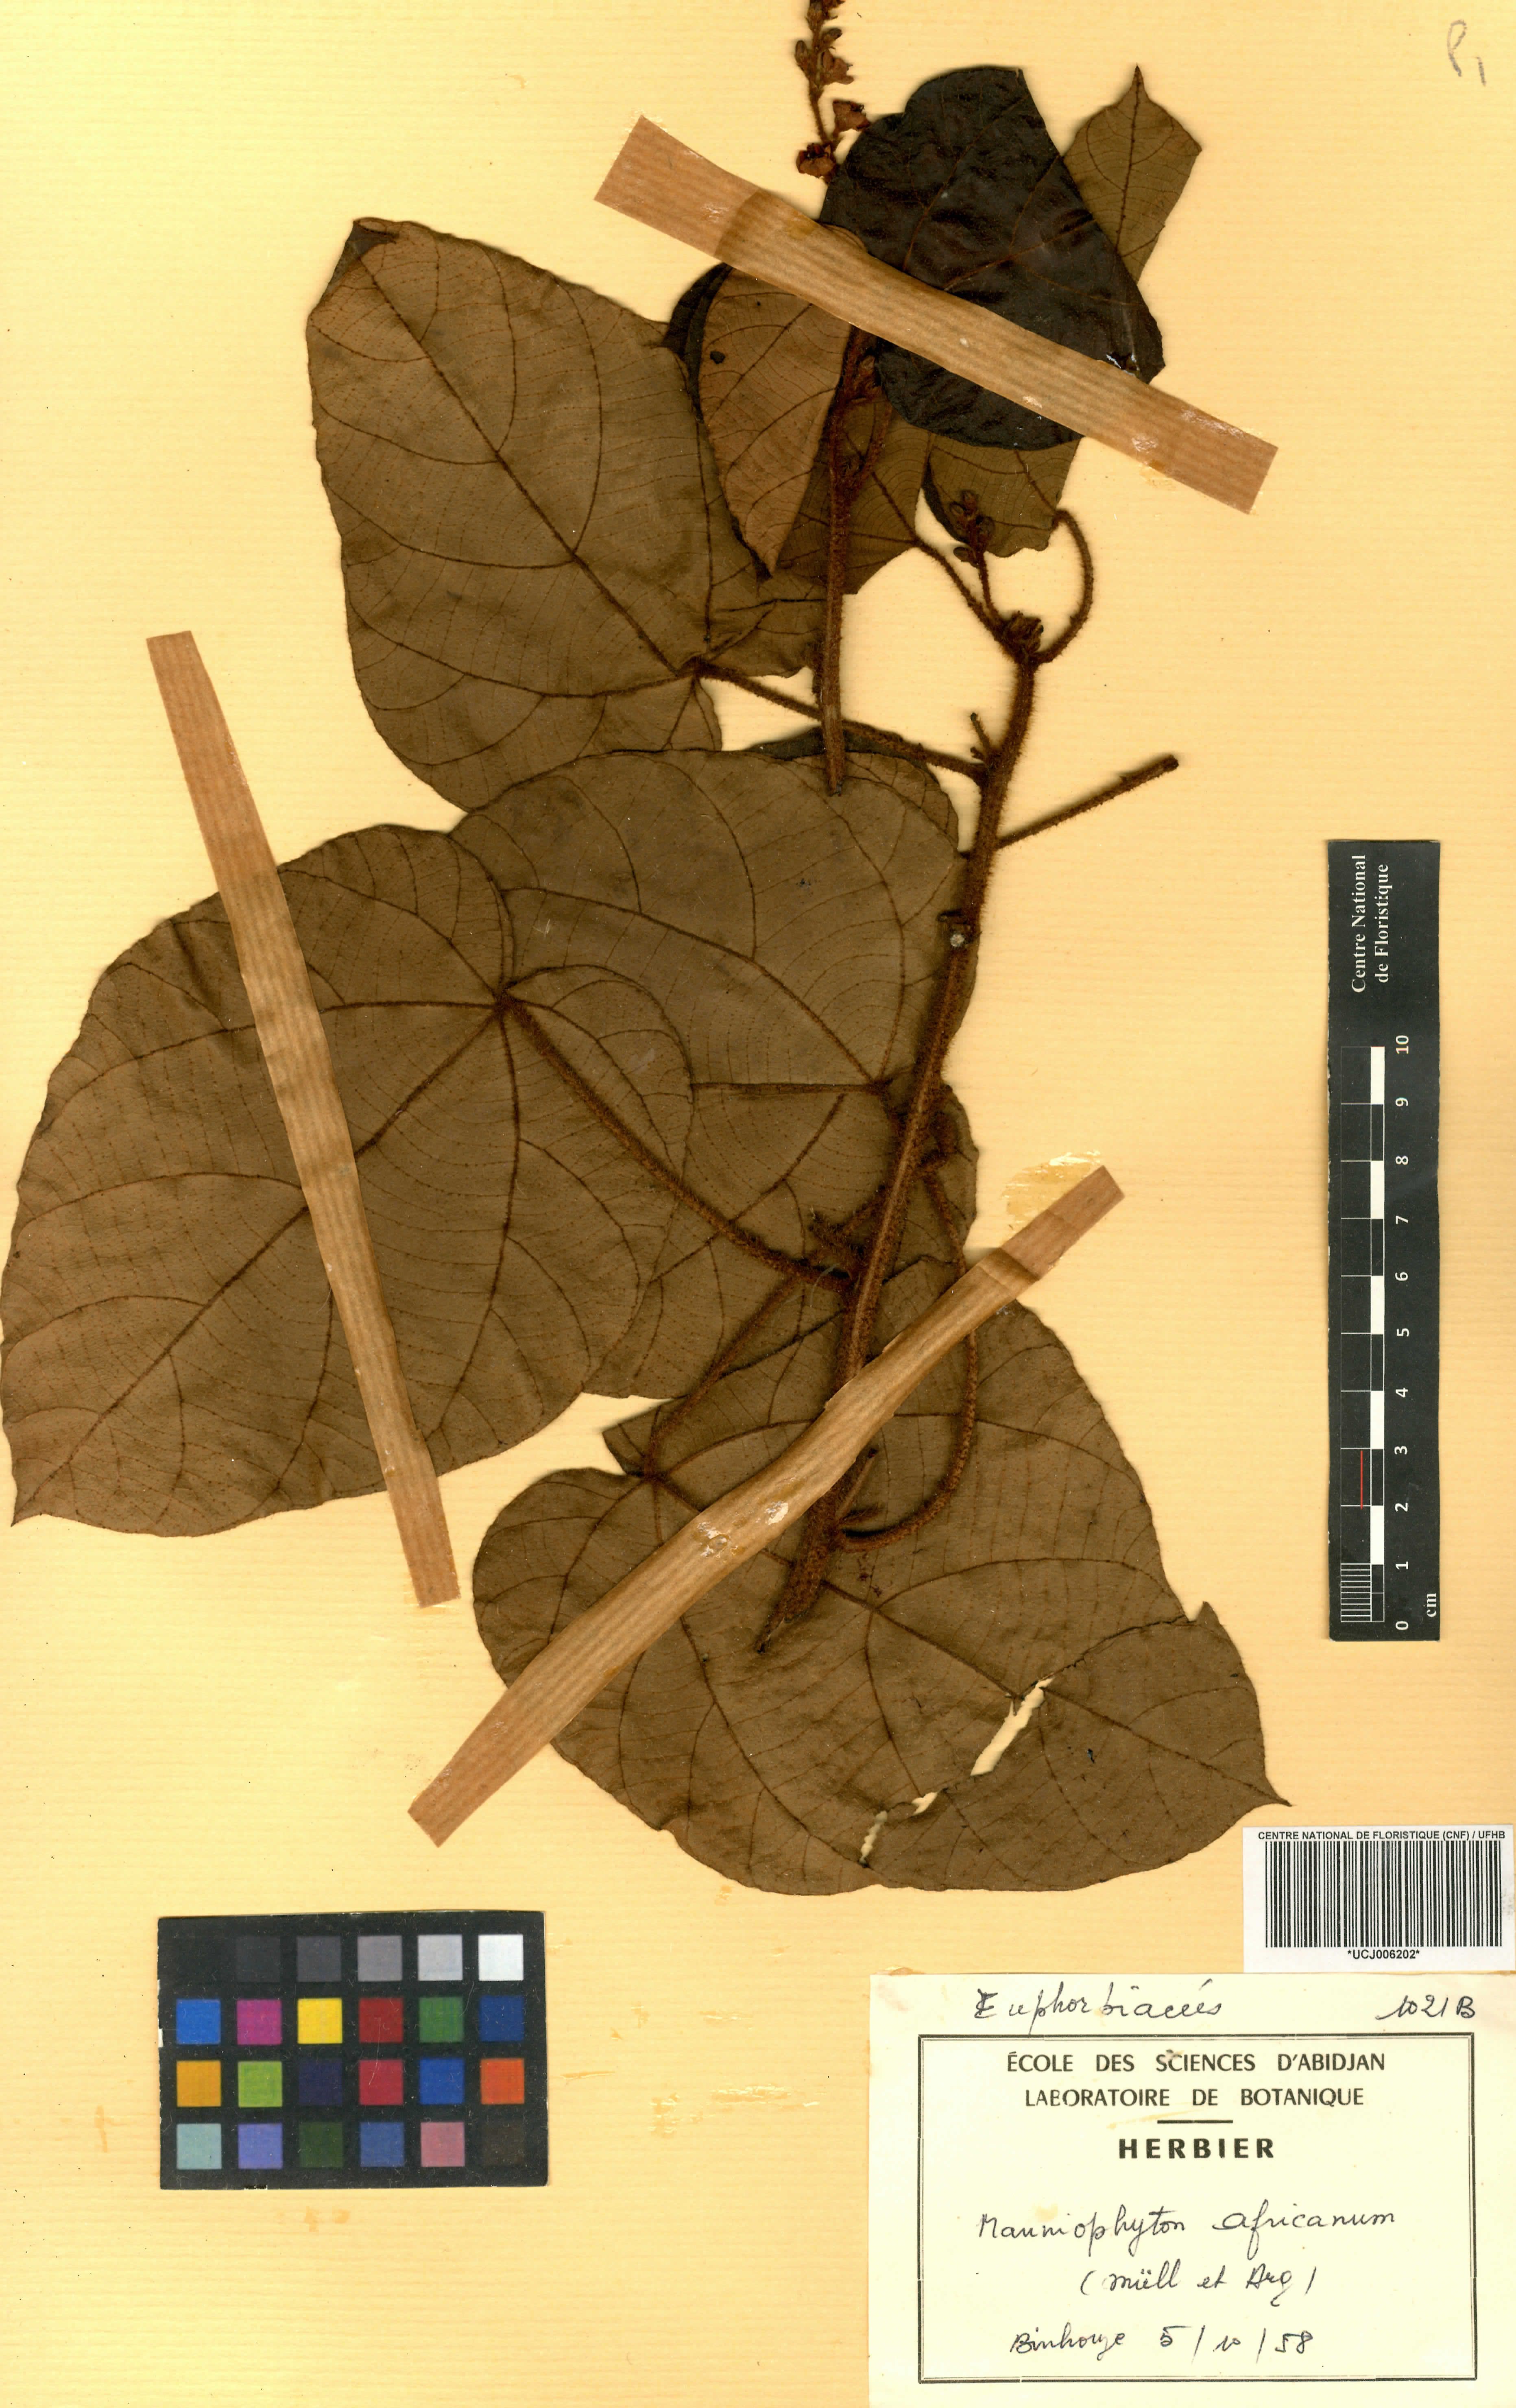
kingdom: Plantae
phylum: Tracheophyta
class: Magnoliopsida
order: Malpighiales
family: Euphorbiaceae
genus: Manniophyton
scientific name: Manniophyton fulvum
